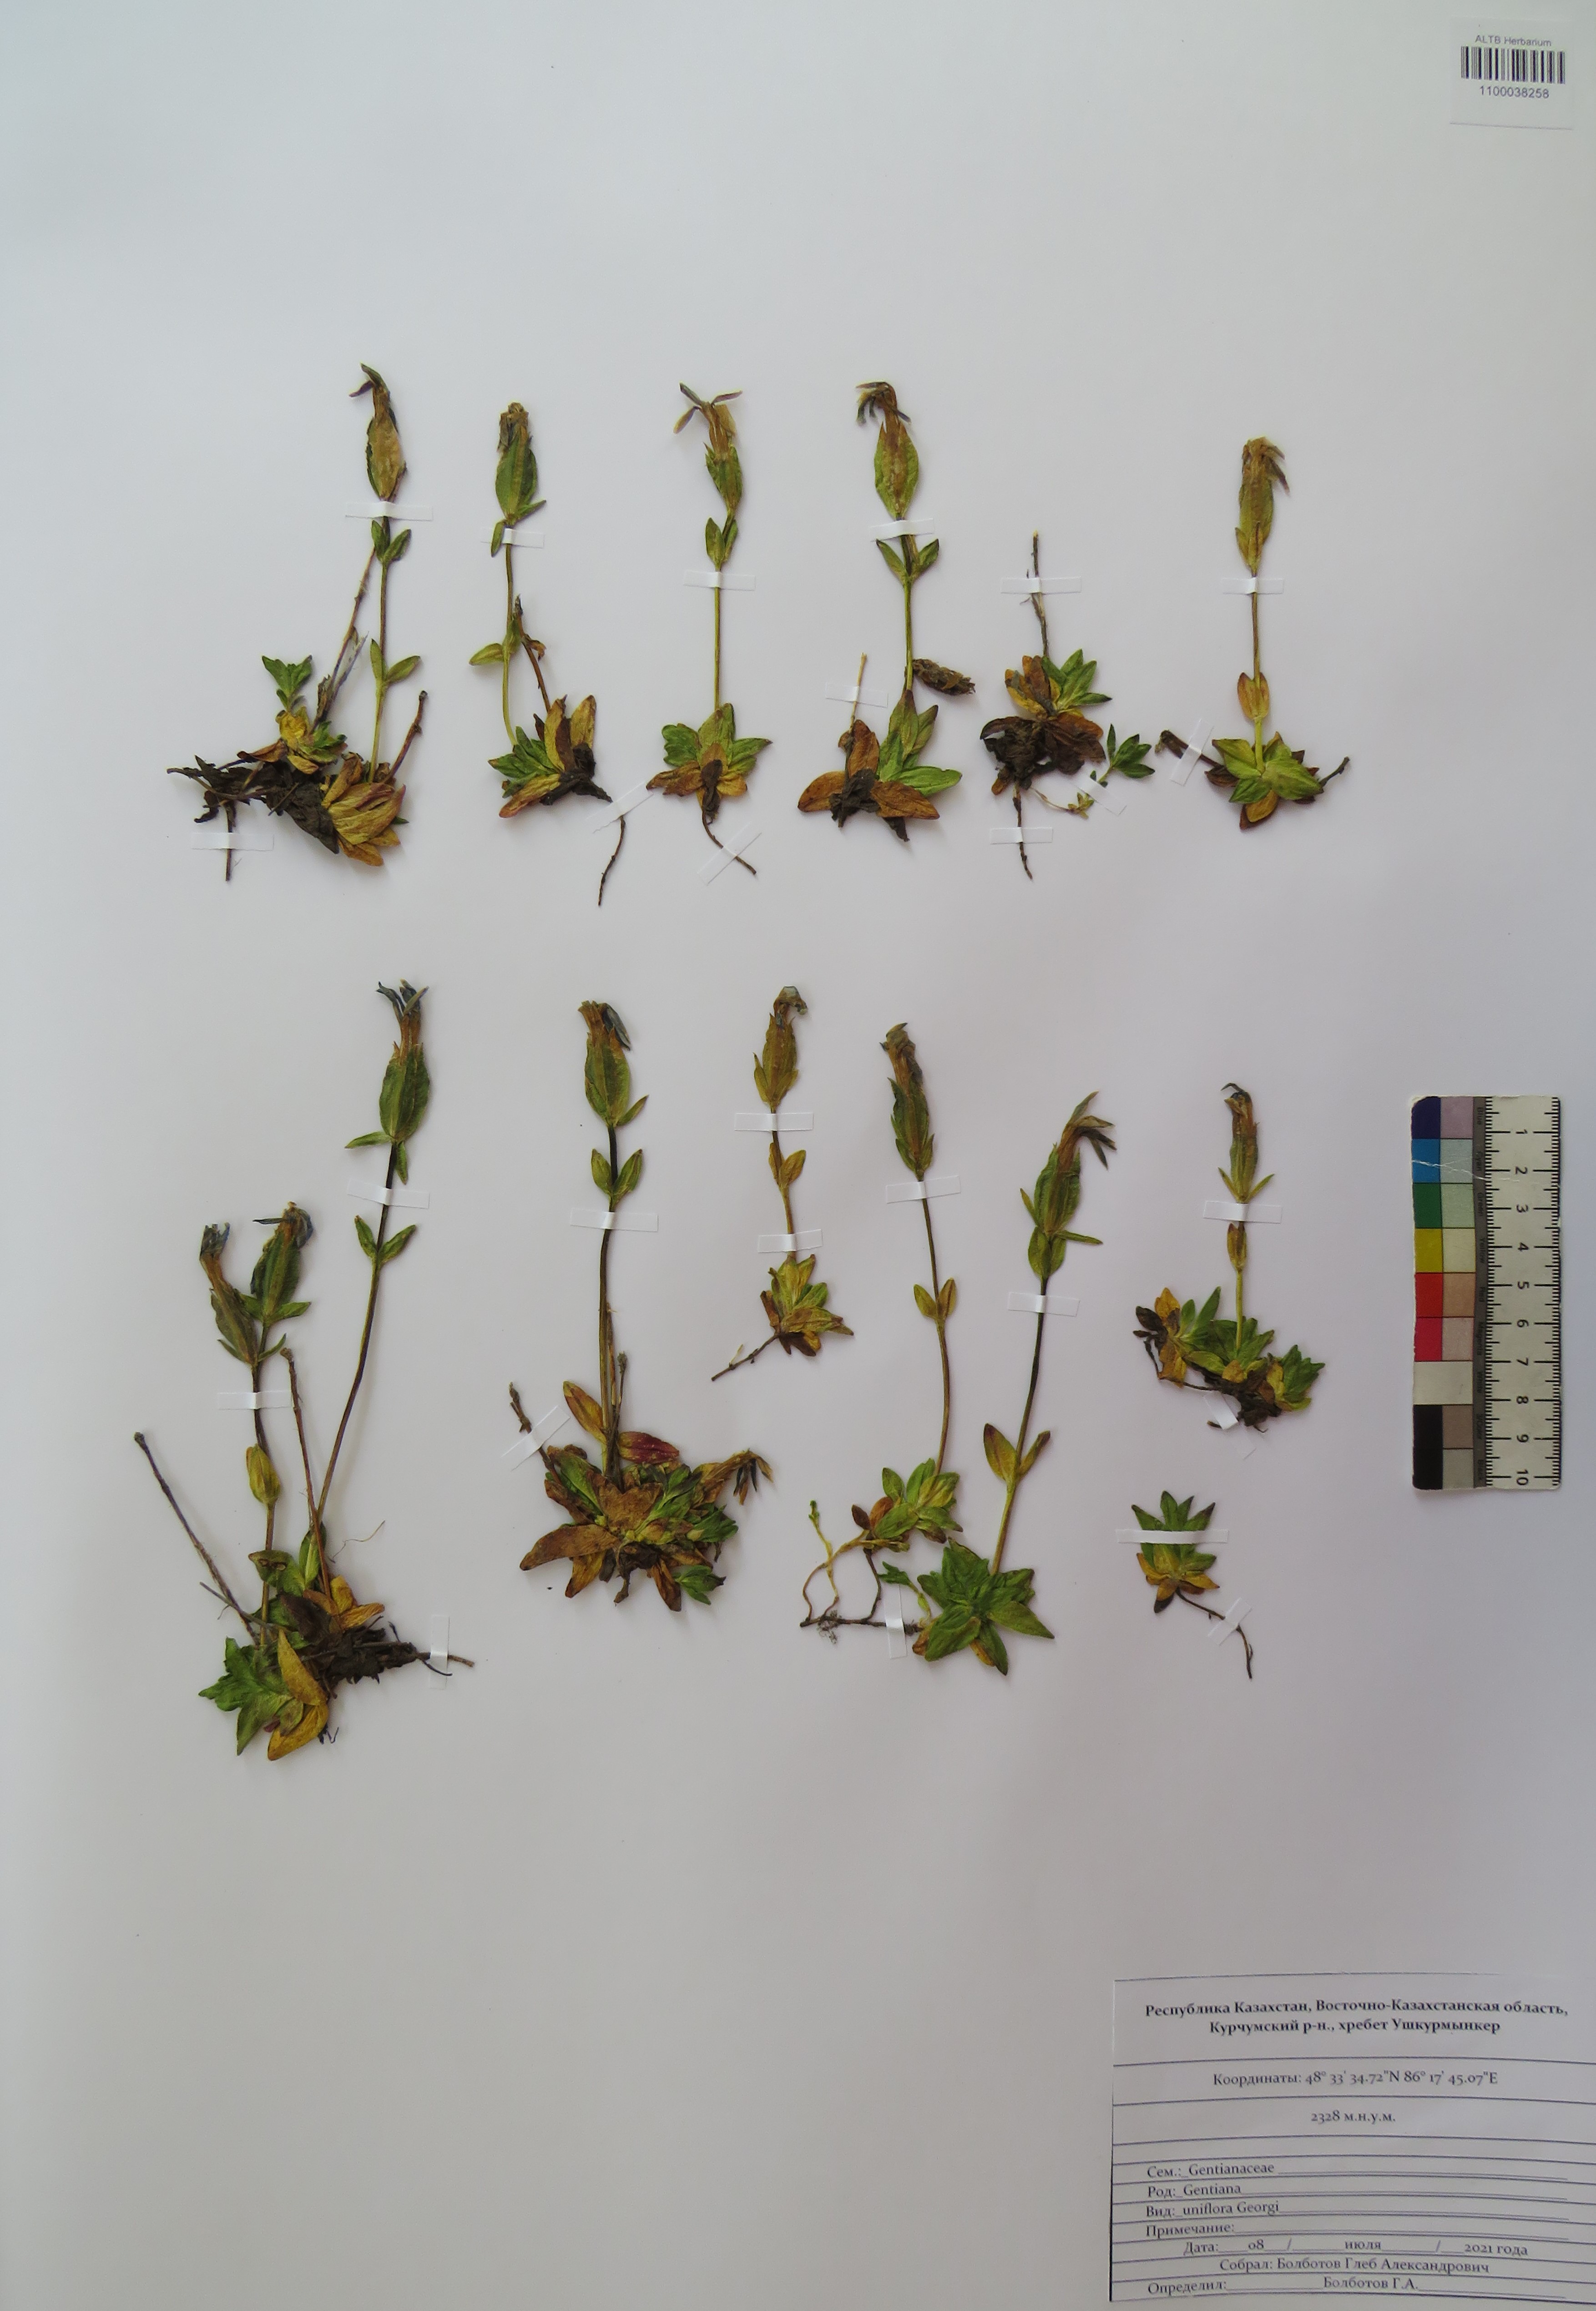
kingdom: Plantae
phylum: Tracheophyta
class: Magnoliopsida
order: Gentianales
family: Gentianaceae
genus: Gentiana
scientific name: Gentiana uniflora
